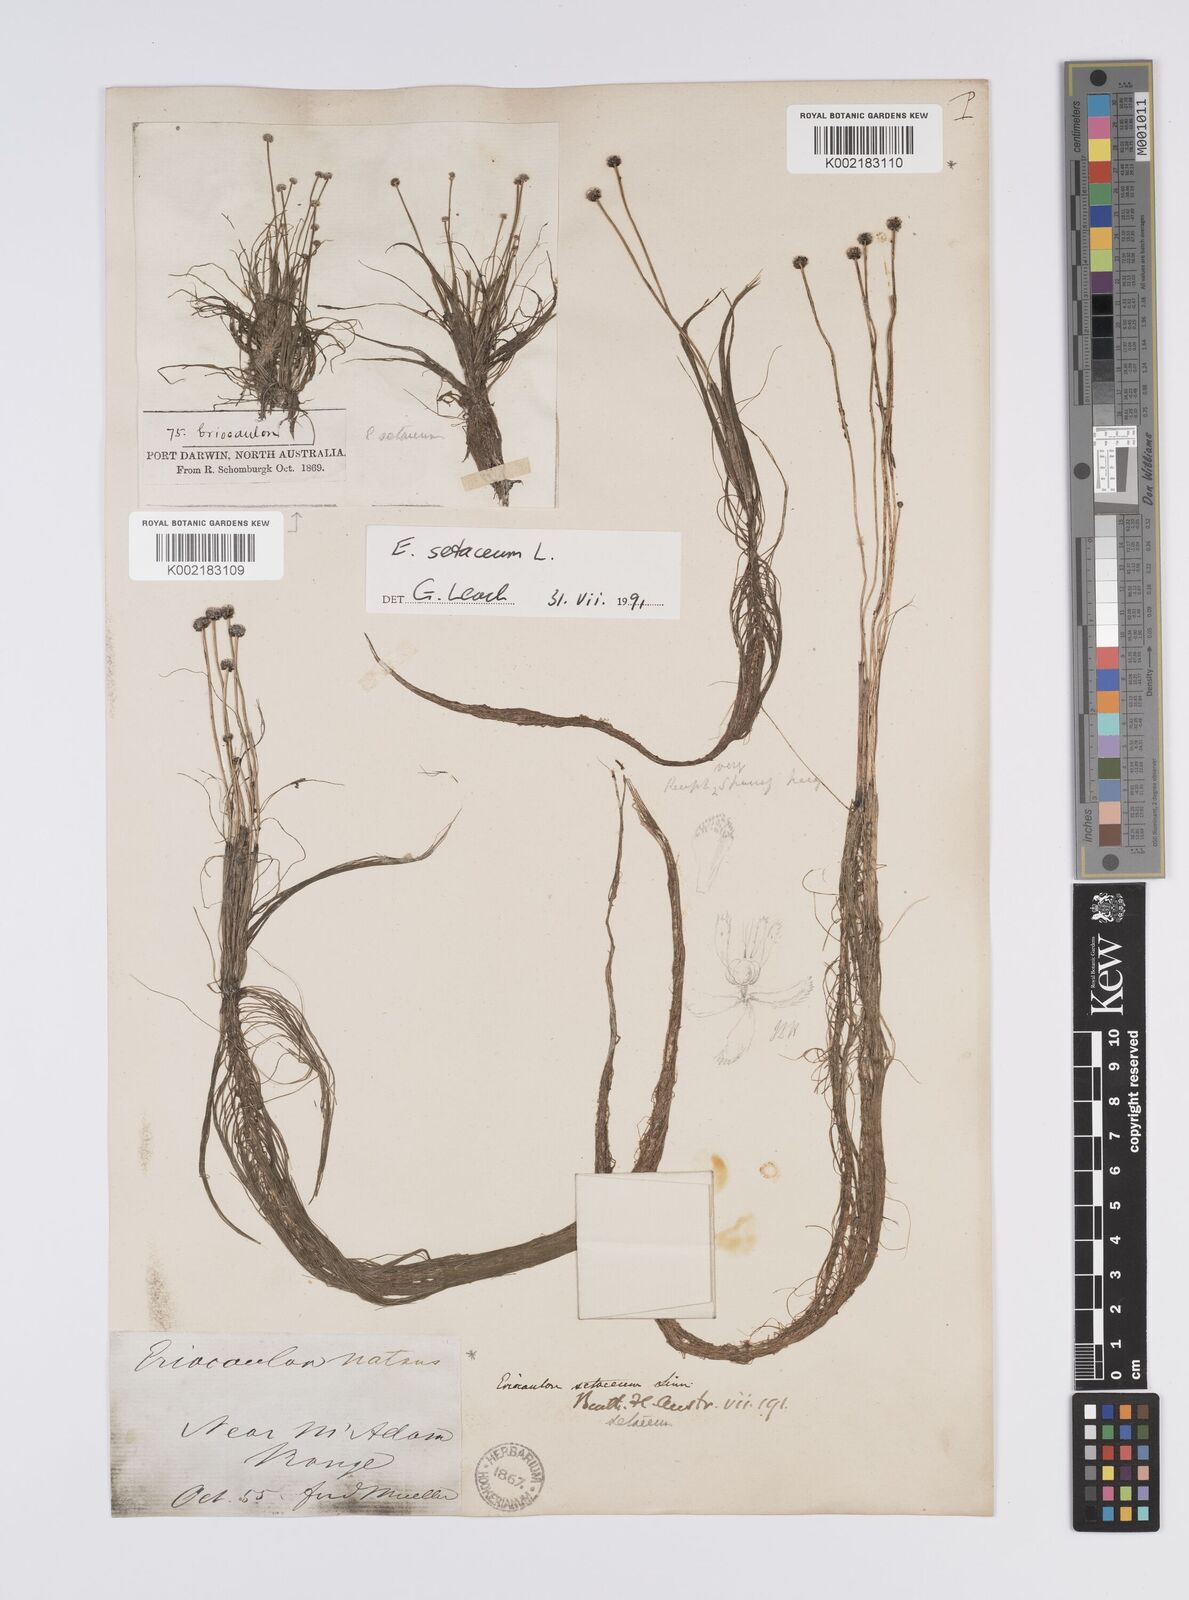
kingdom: Plantae
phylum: Tracheophyta
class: Liliopsida
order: Poales
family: Eriocaulaceae
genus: Eriocaulon
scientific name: Eriocaulon setaceum
